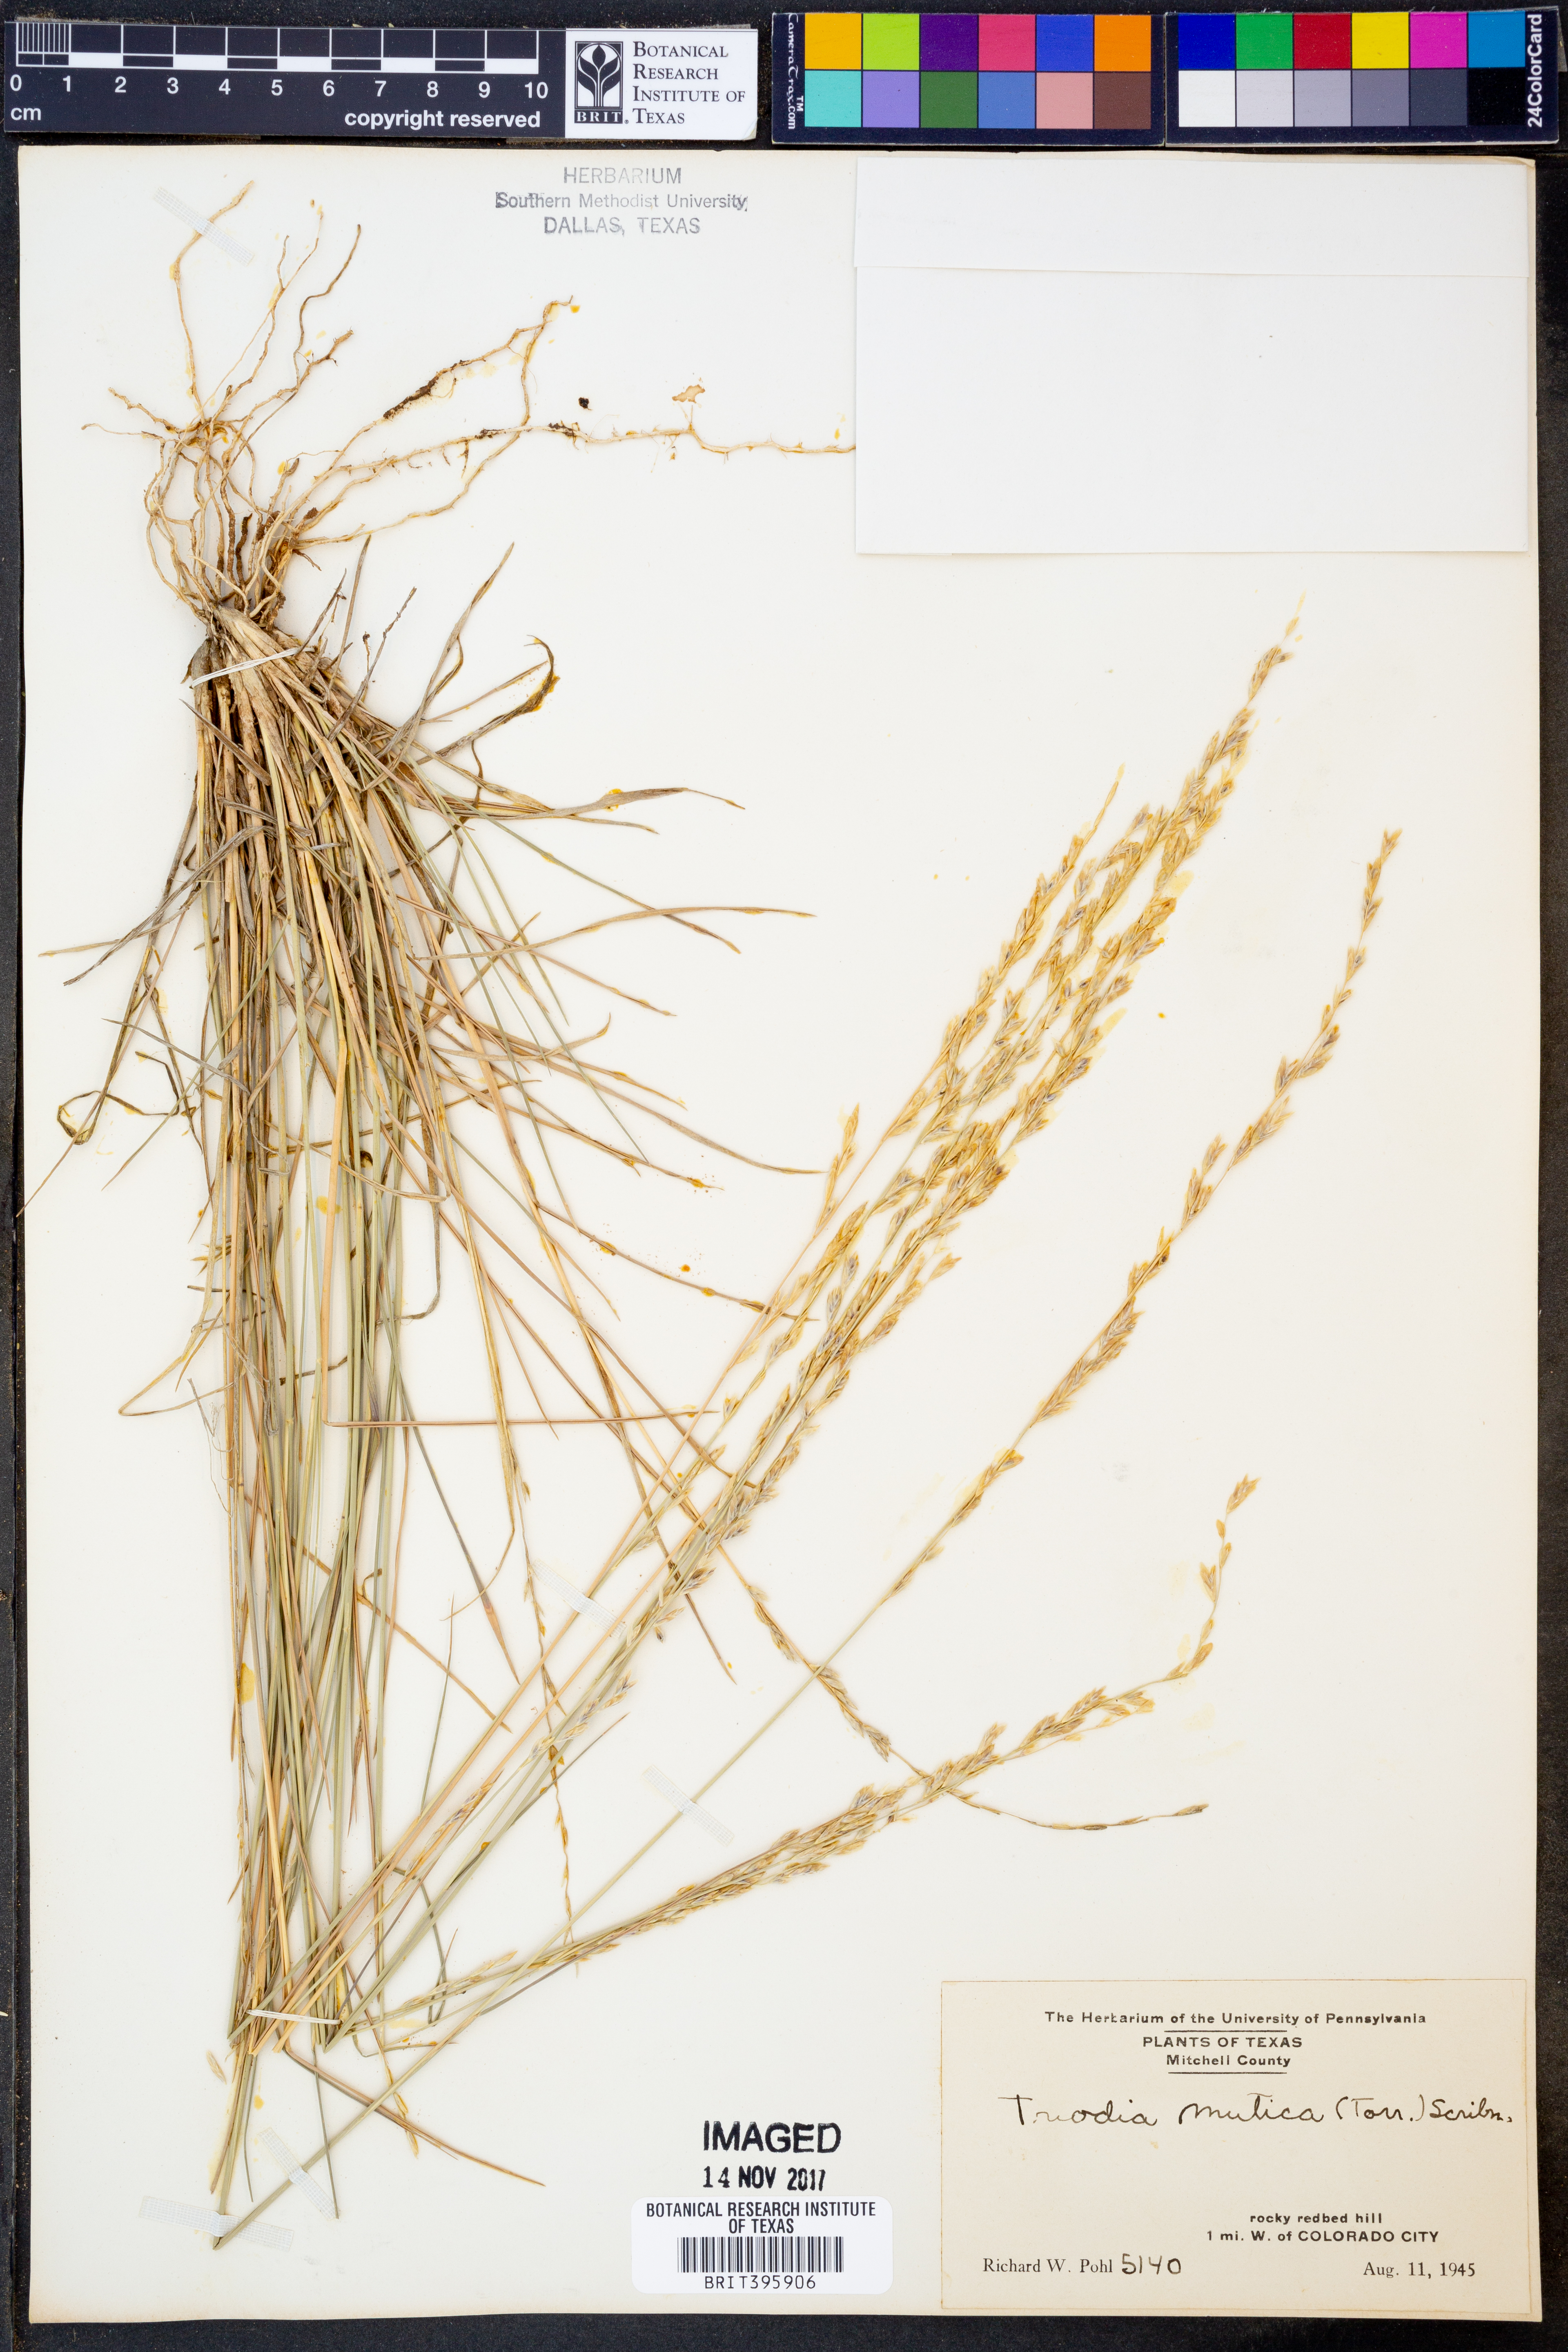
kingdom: Plantae
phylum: Tracheophyta
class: Liliopsida
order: Poales
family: Poaceae
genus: Tridentopsis
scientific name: Tridentopsis mutica
